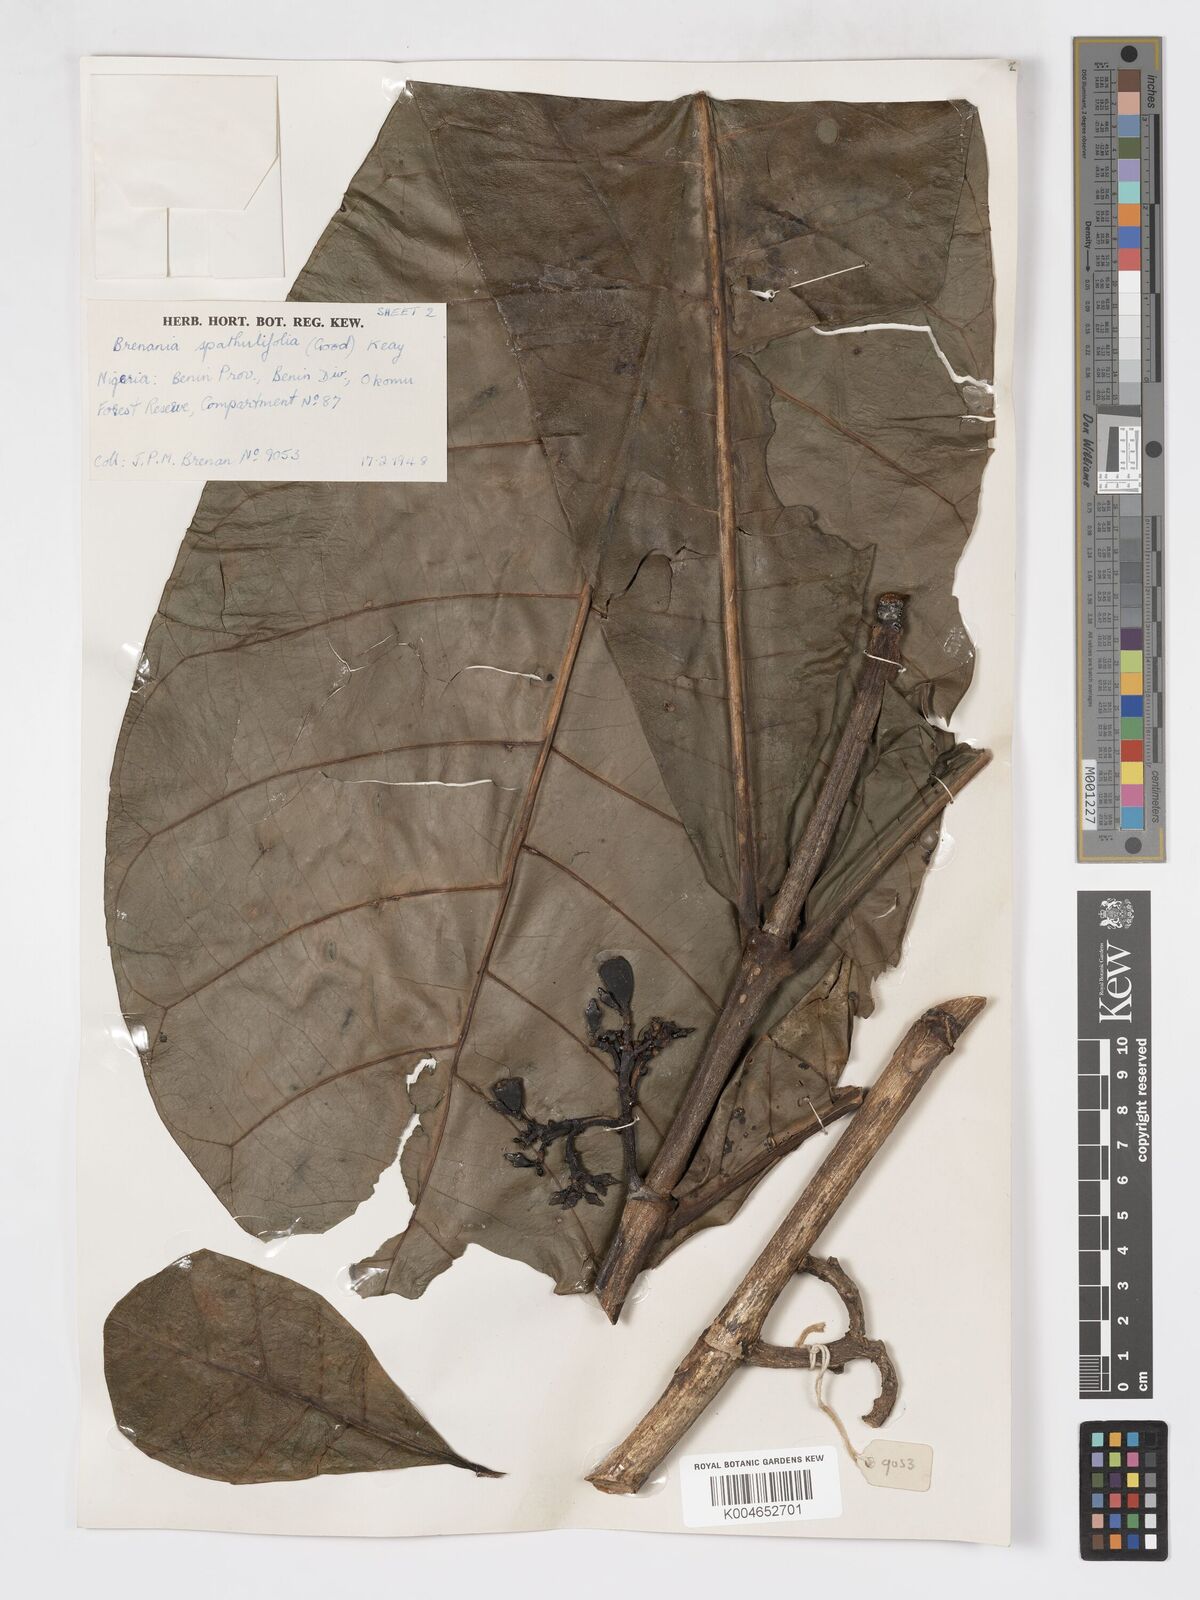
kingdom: Plantae
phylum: Tracheophyta
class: Magnoliopsida
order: Gentianales
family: Rubiaceae
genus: Brenania
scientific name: Brenania brieyi
